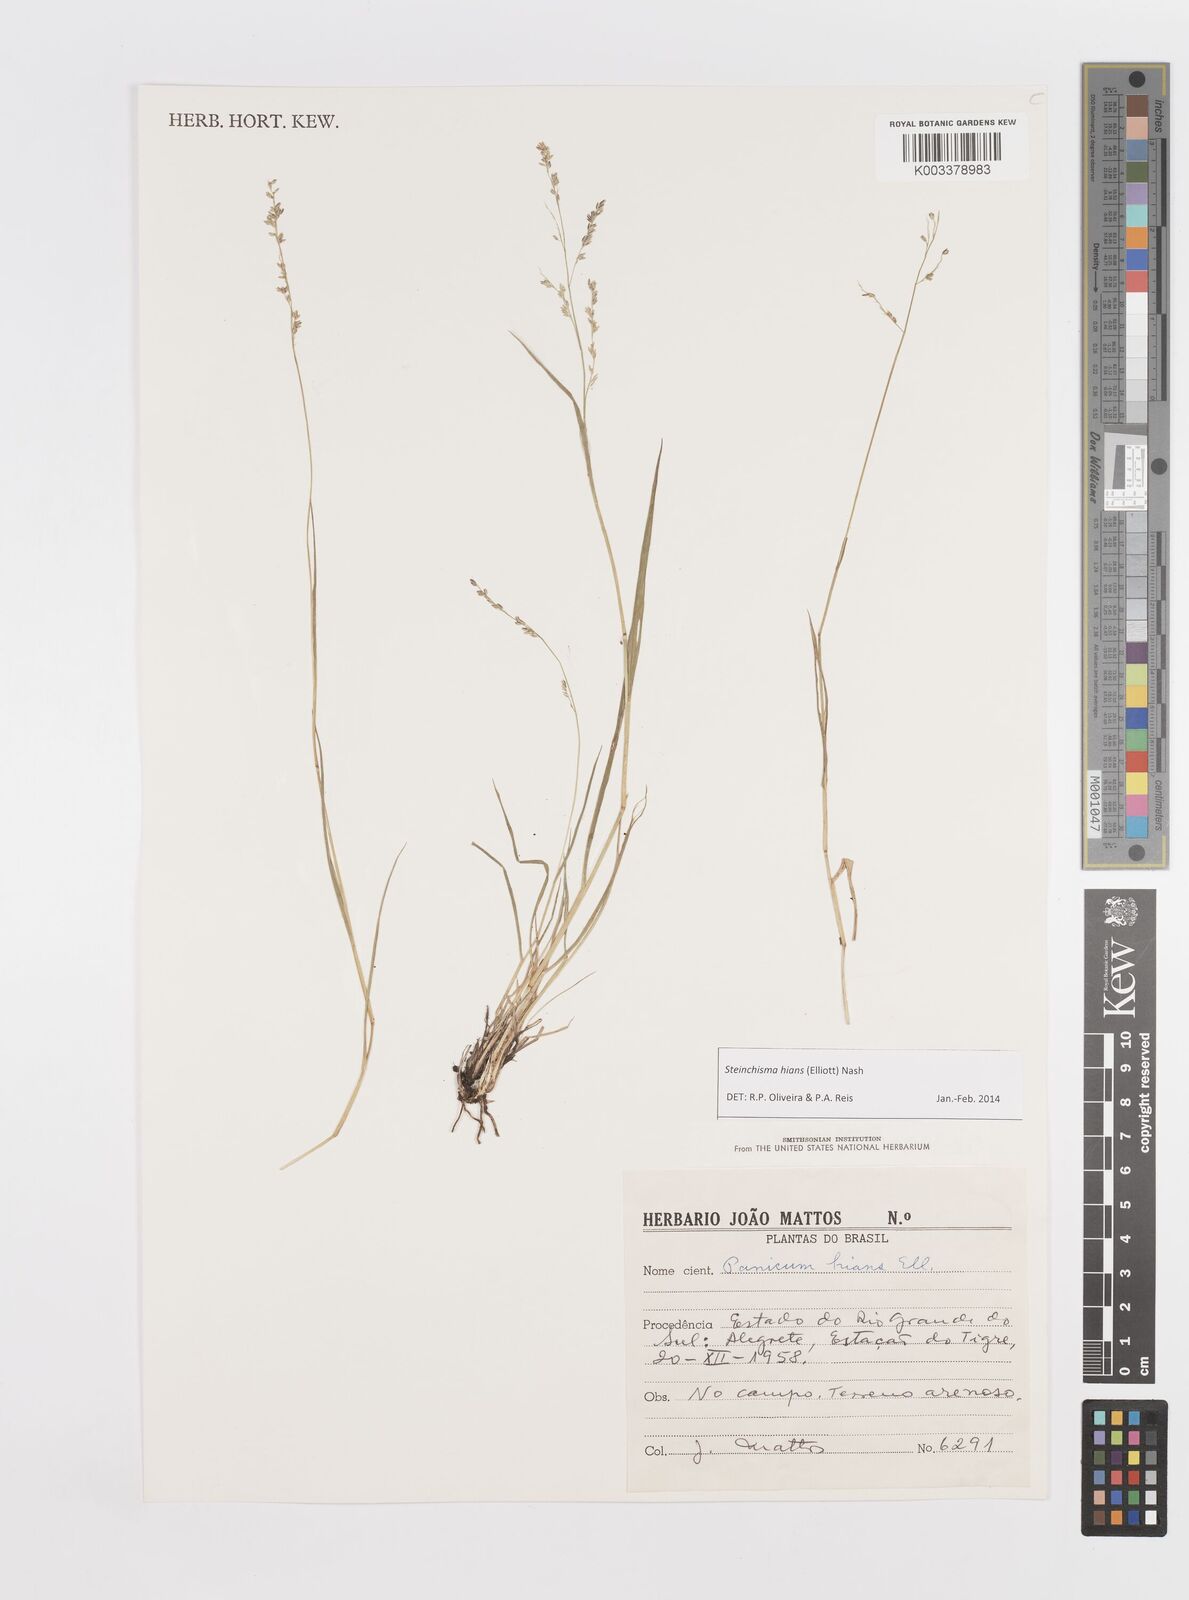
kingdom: Plantae
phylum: Tracheophyta
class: Liliopsida
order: Poales
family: Poaceae
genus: Steinchisma
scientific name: Steinchisma hians
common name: Gaping panic grass
